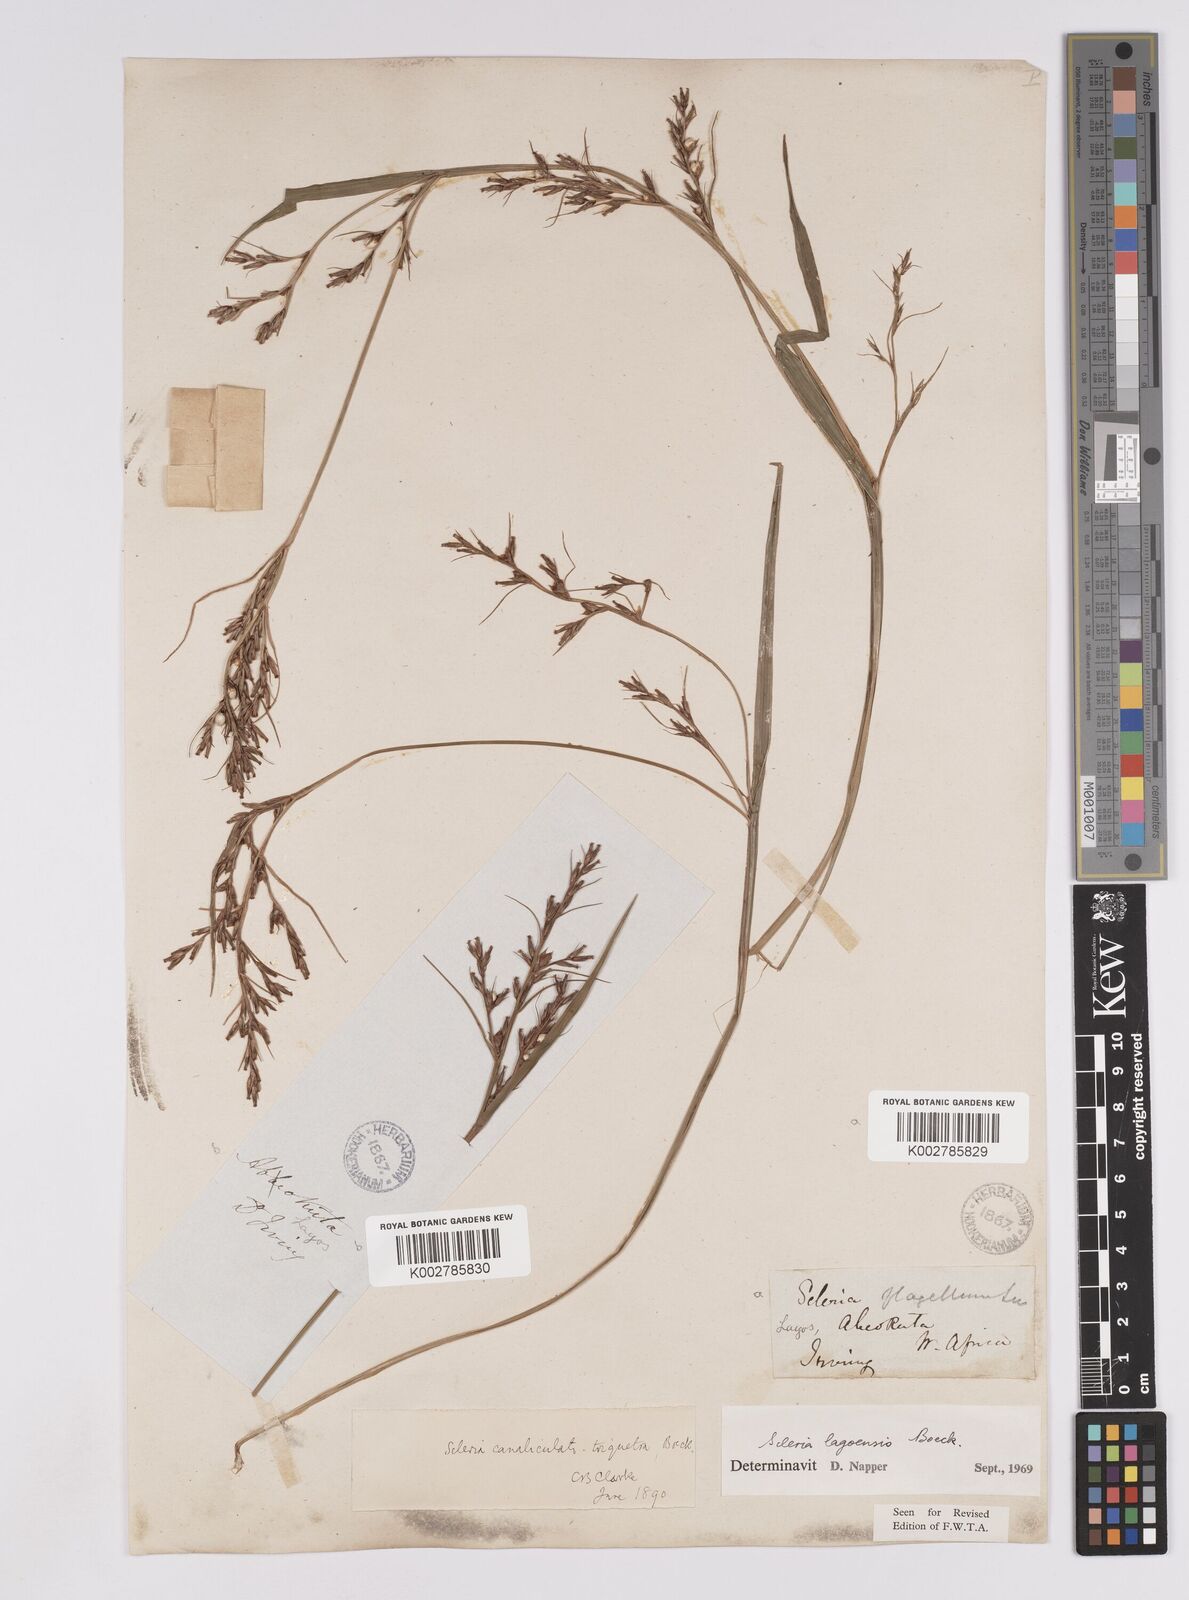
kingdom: Plantae
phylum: Tracheophyta
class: Liliopsida
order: Poales
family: Cyperaceae
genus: Scleria
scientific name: Scleria lagoensis
